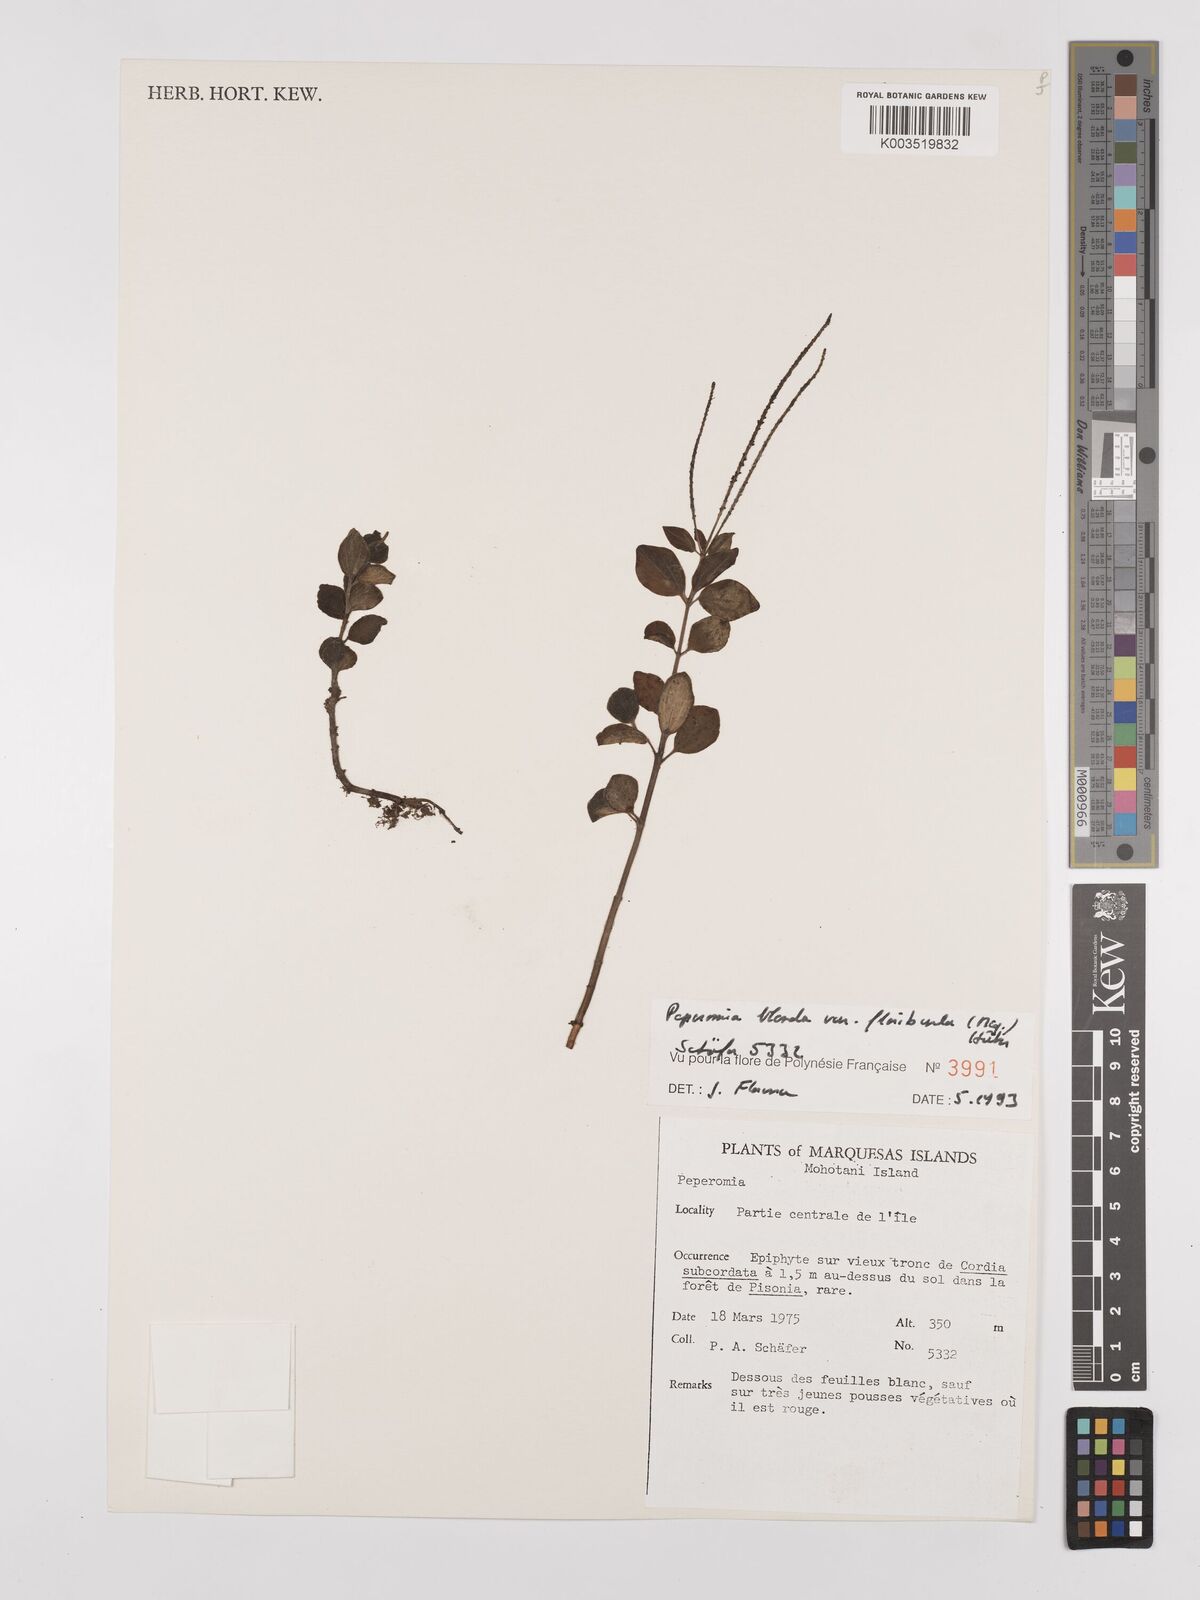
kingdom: Plantae
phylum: Tracheophyta
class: Magnoliopsida
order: Piperales
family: Piperaceae
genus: Peperomia
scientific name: Peperomia leptostachya
